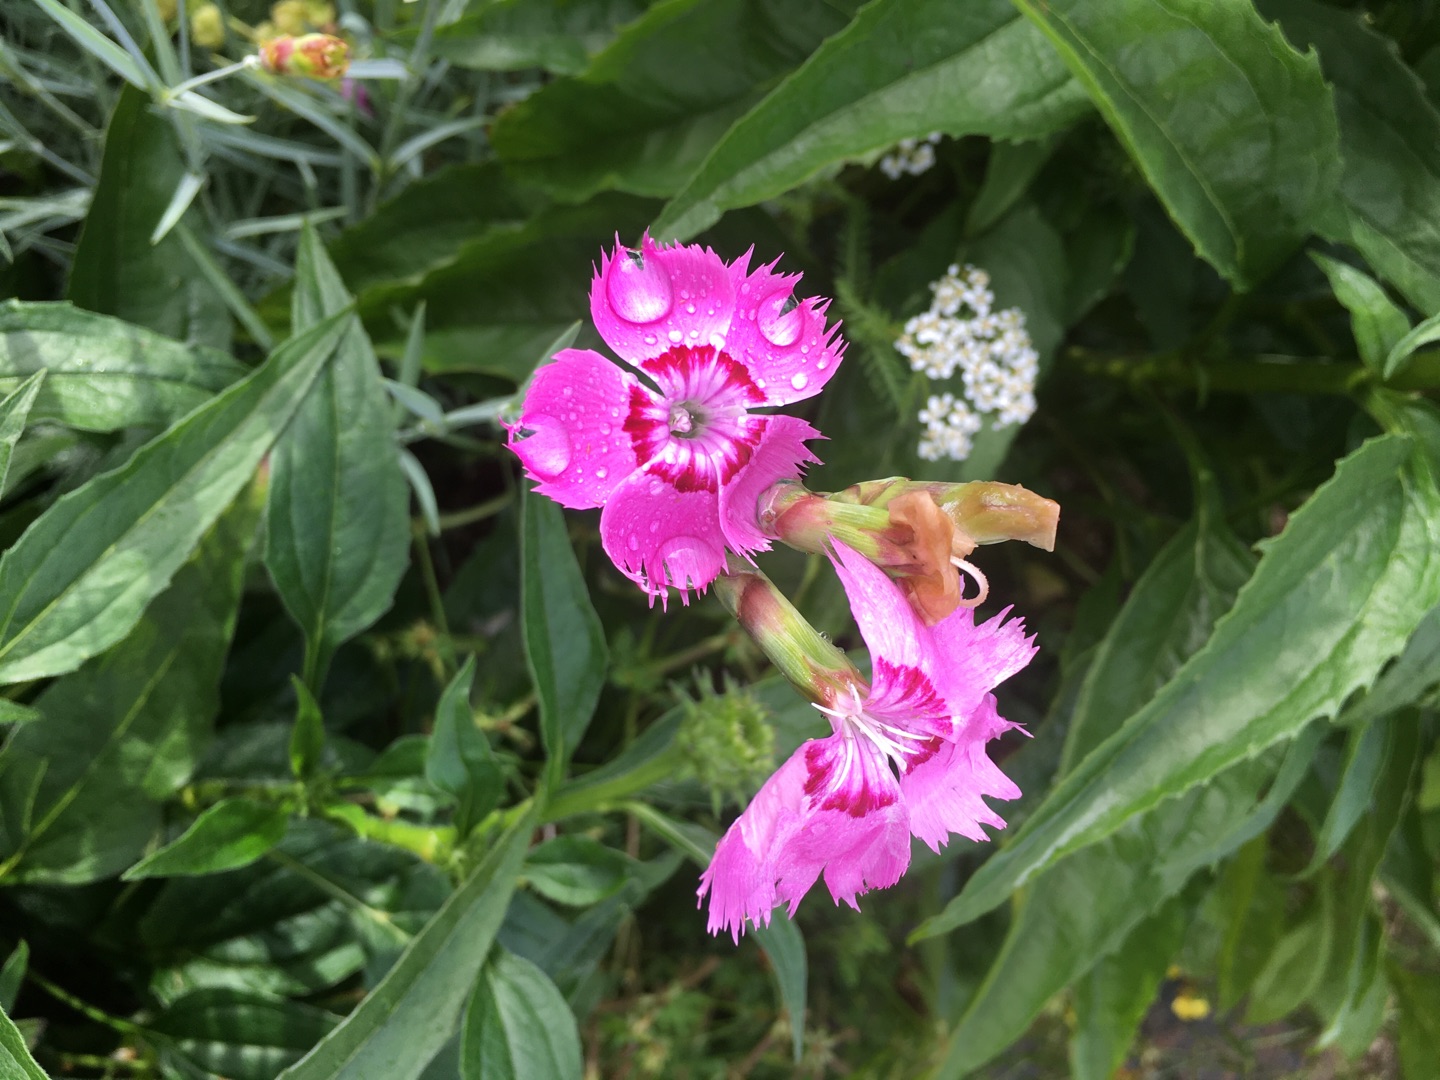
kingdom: Plantae
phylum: Tracheophyta
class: Magnoliopsida
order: Caryophyllales
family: Caryophyllaceae
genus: Dianthus
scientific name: Dianthus plumarius
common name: Fjernellike
